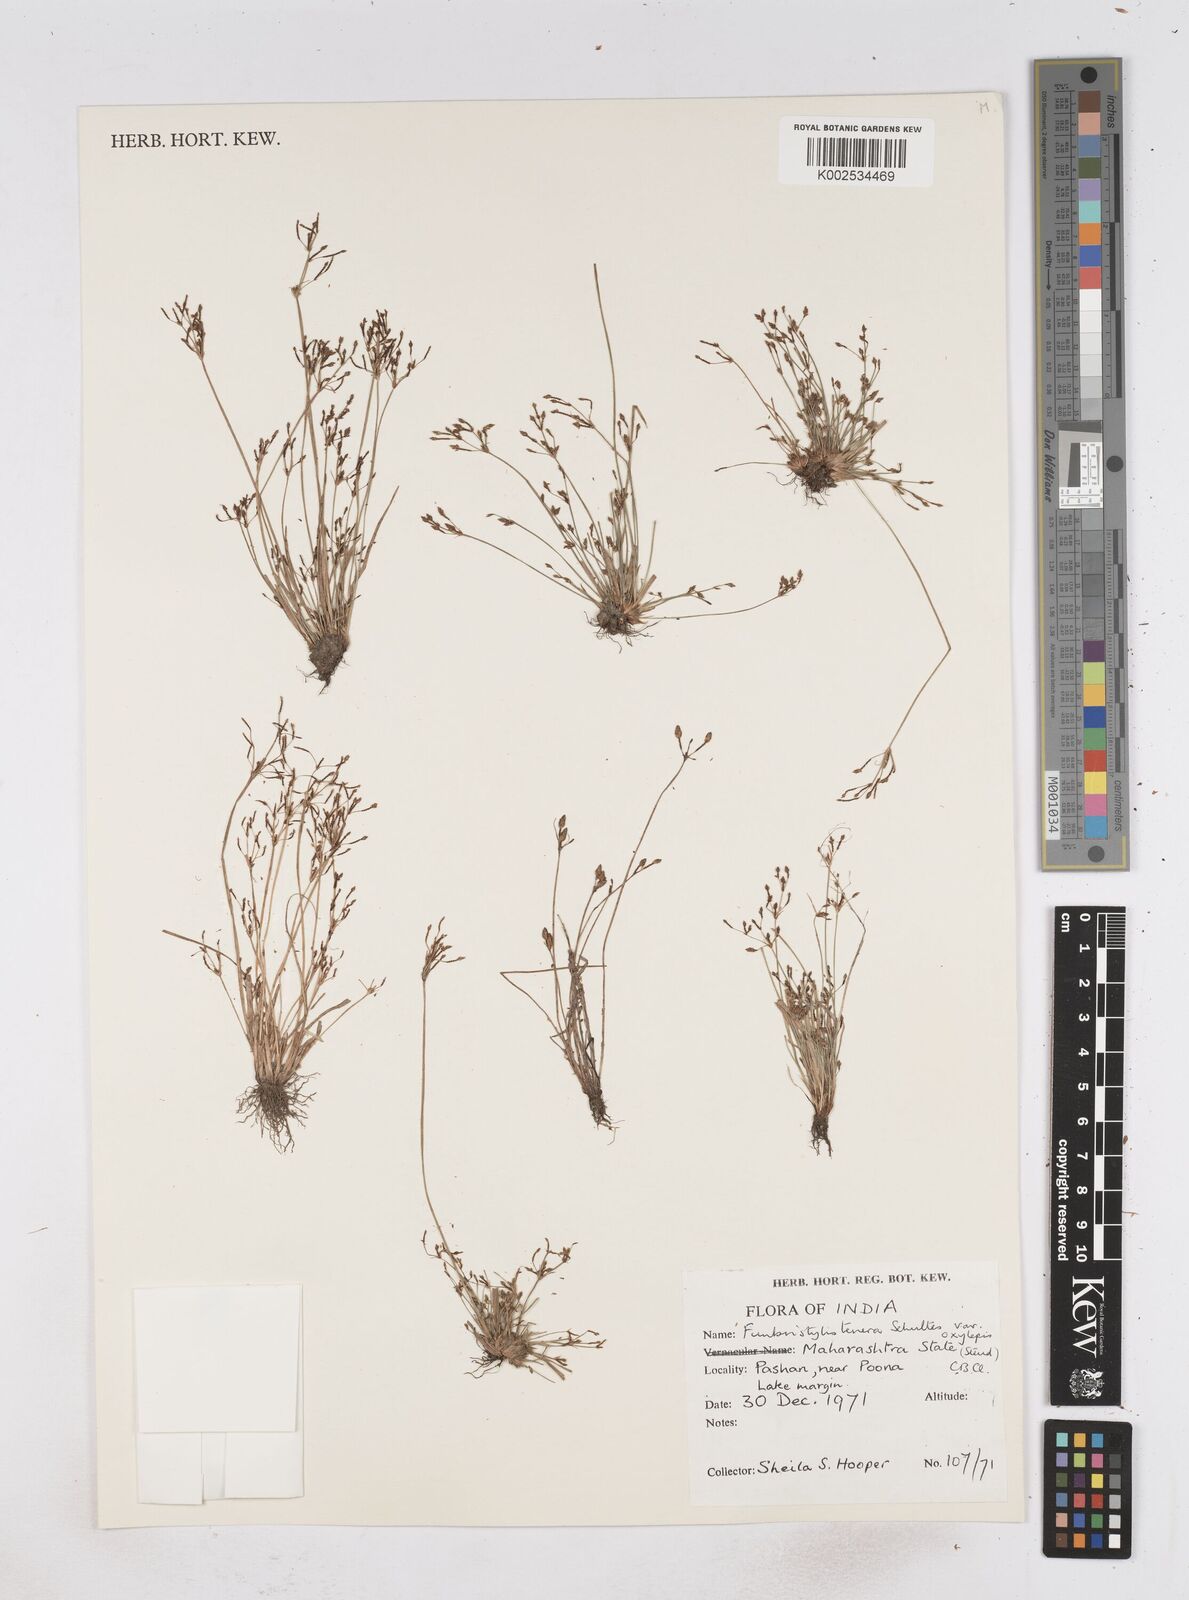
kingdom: Plantae
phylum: Tracheophyta
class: Liliopsida
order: Poales
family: Cyperaceae
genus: Fimbristylis
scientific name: Fimbristylis tenera
